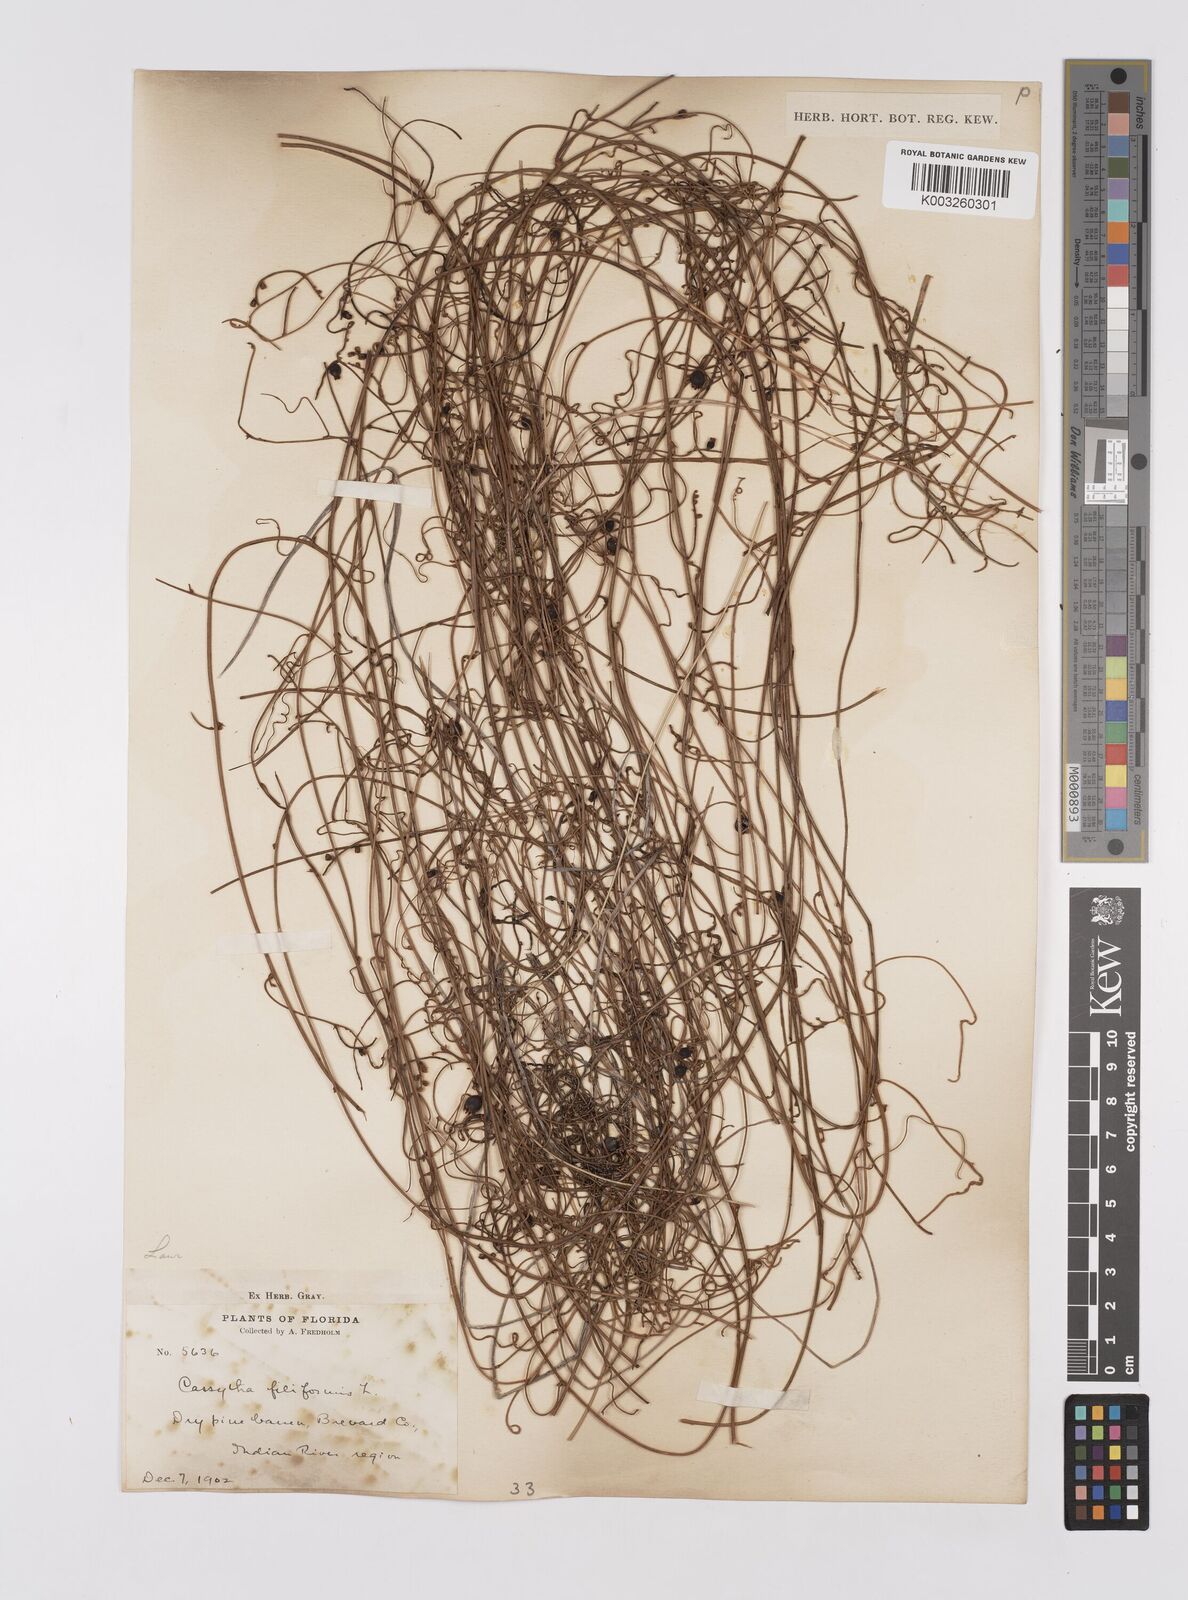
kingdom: Plantae
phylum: Tracheophyta
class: Magnoliopsida
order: Laurales
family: Lauraceae
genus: Cassytha
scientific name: Cassytha filiformis
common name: Dodder-laurel
